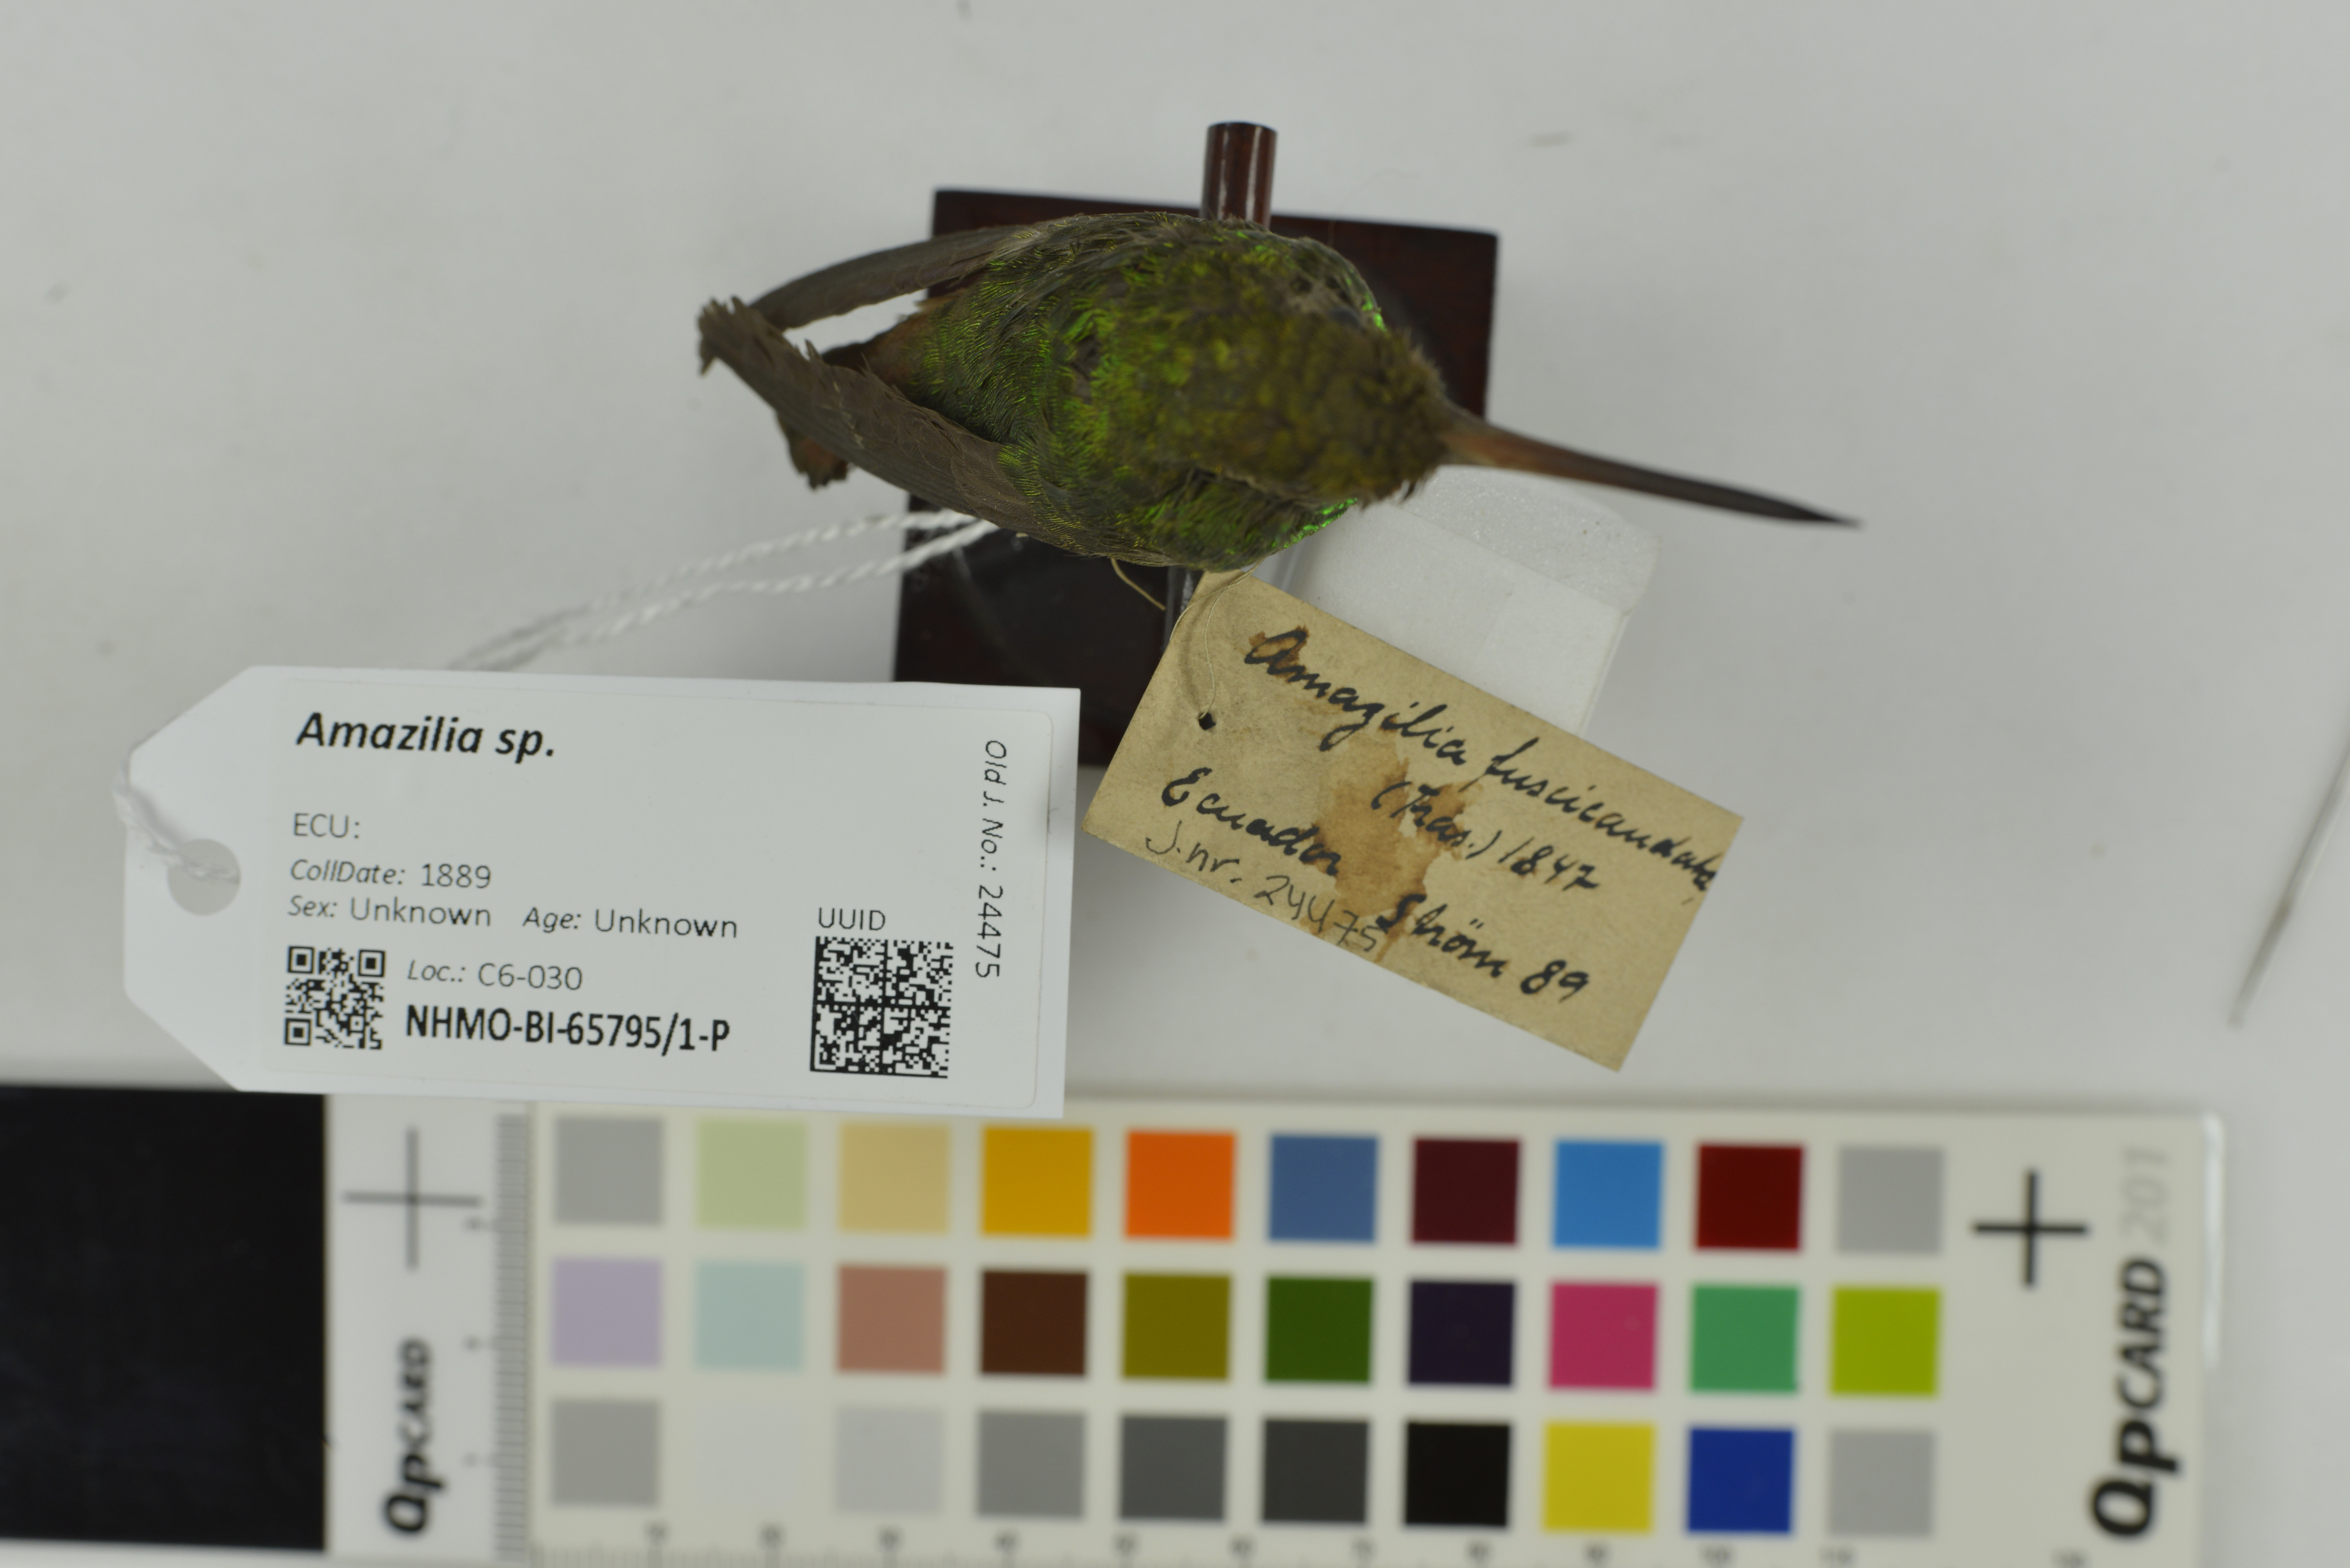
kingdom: Animalia
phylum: Chordata
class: Aves
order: Apodiformes
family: Trochilidae
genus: Amazilia
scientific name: Amazilia
